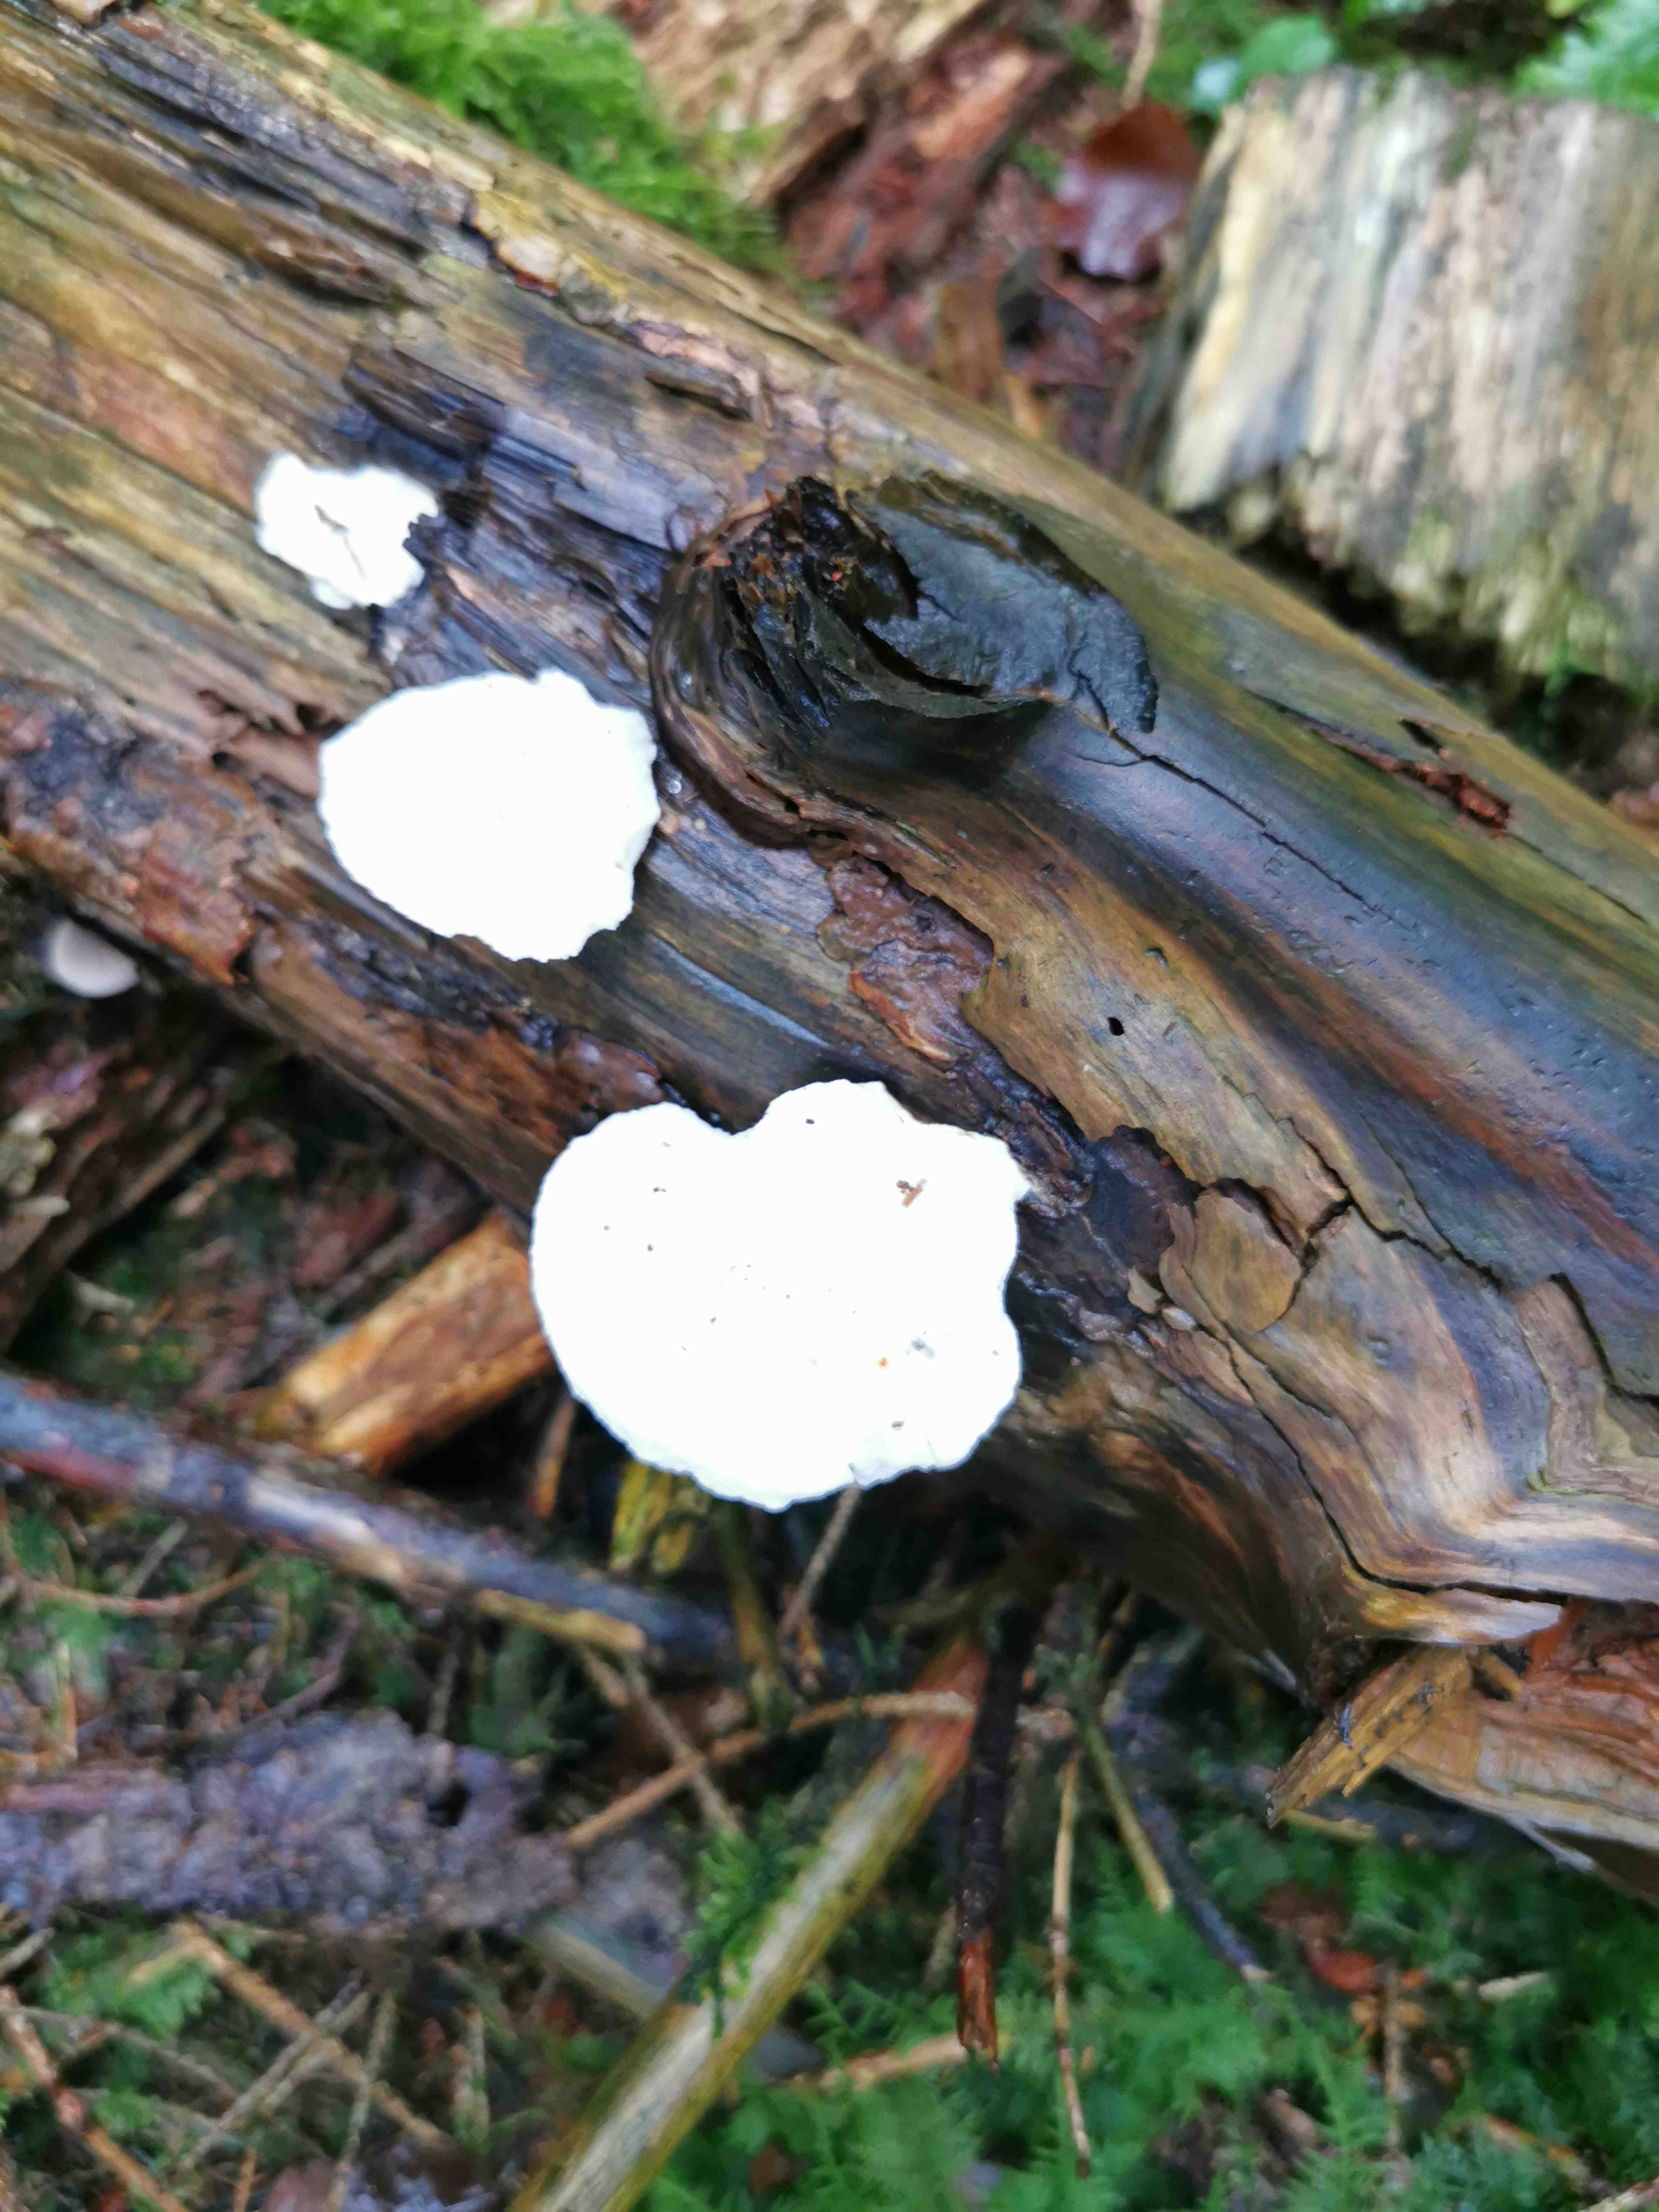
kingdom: Fungi
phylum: Basidiomycota
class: Agaricomycetes
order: Polyporales
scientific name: Polyporales
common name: poresvampordenen
